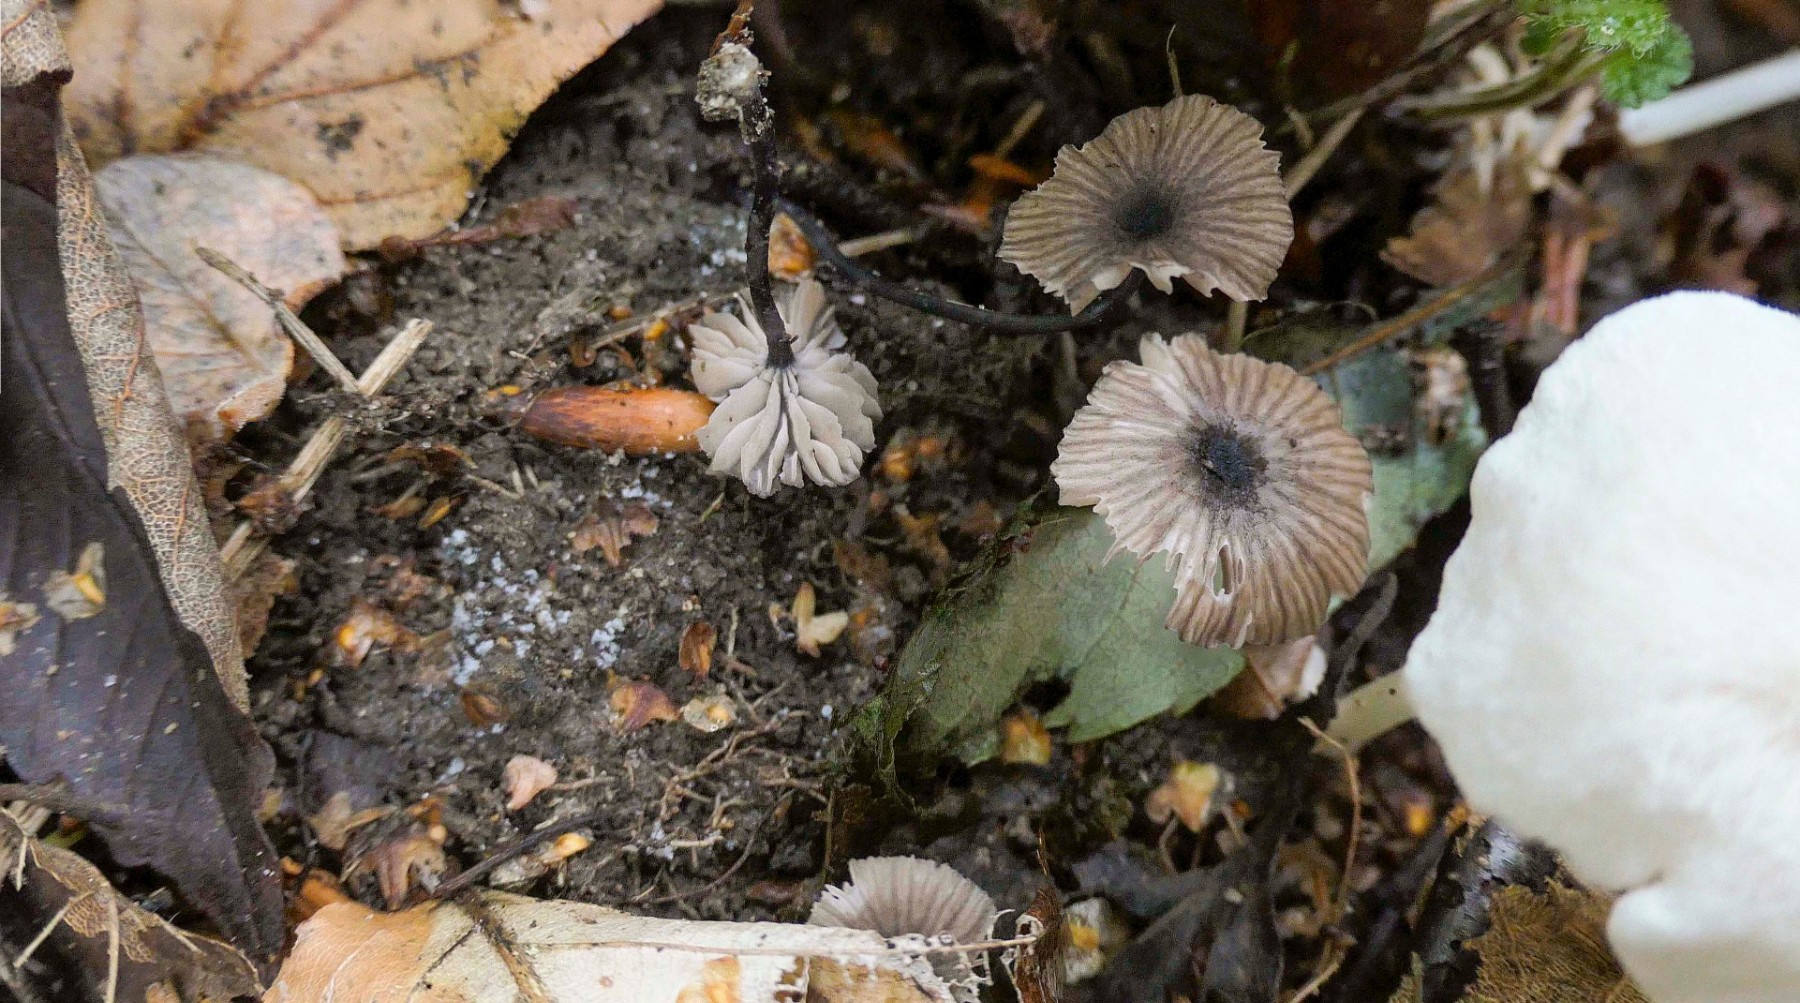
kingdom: Fungi
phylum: Basidiomycota
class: Agaricomycetes
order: Agaricales
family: Entolomataceae
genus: Entoloma
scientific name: Entoloma
